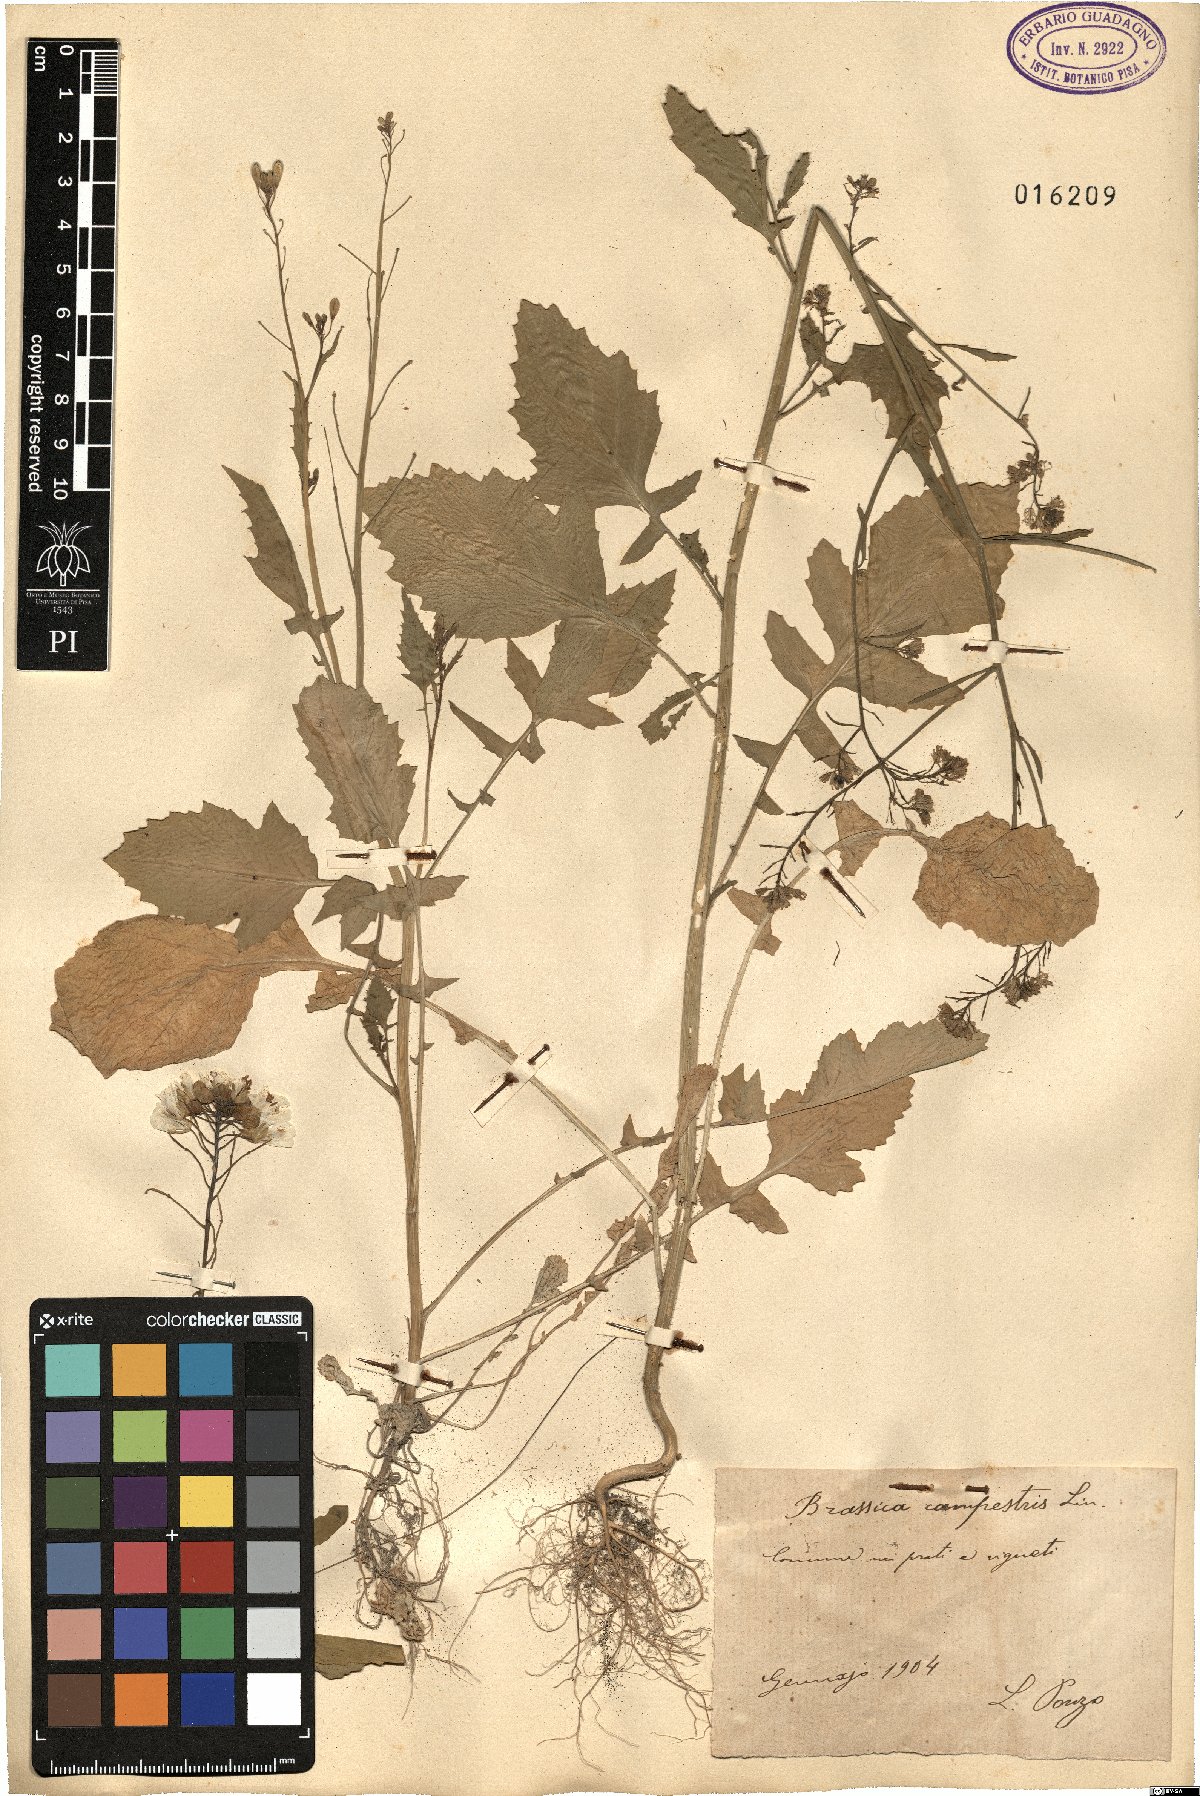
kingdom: Plantae
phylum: Tracheophyta
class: Magnoliopsida
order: Brassicales
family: Brassicaceae
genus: Brassica
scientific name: Brassica rapa
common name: Field mustard
